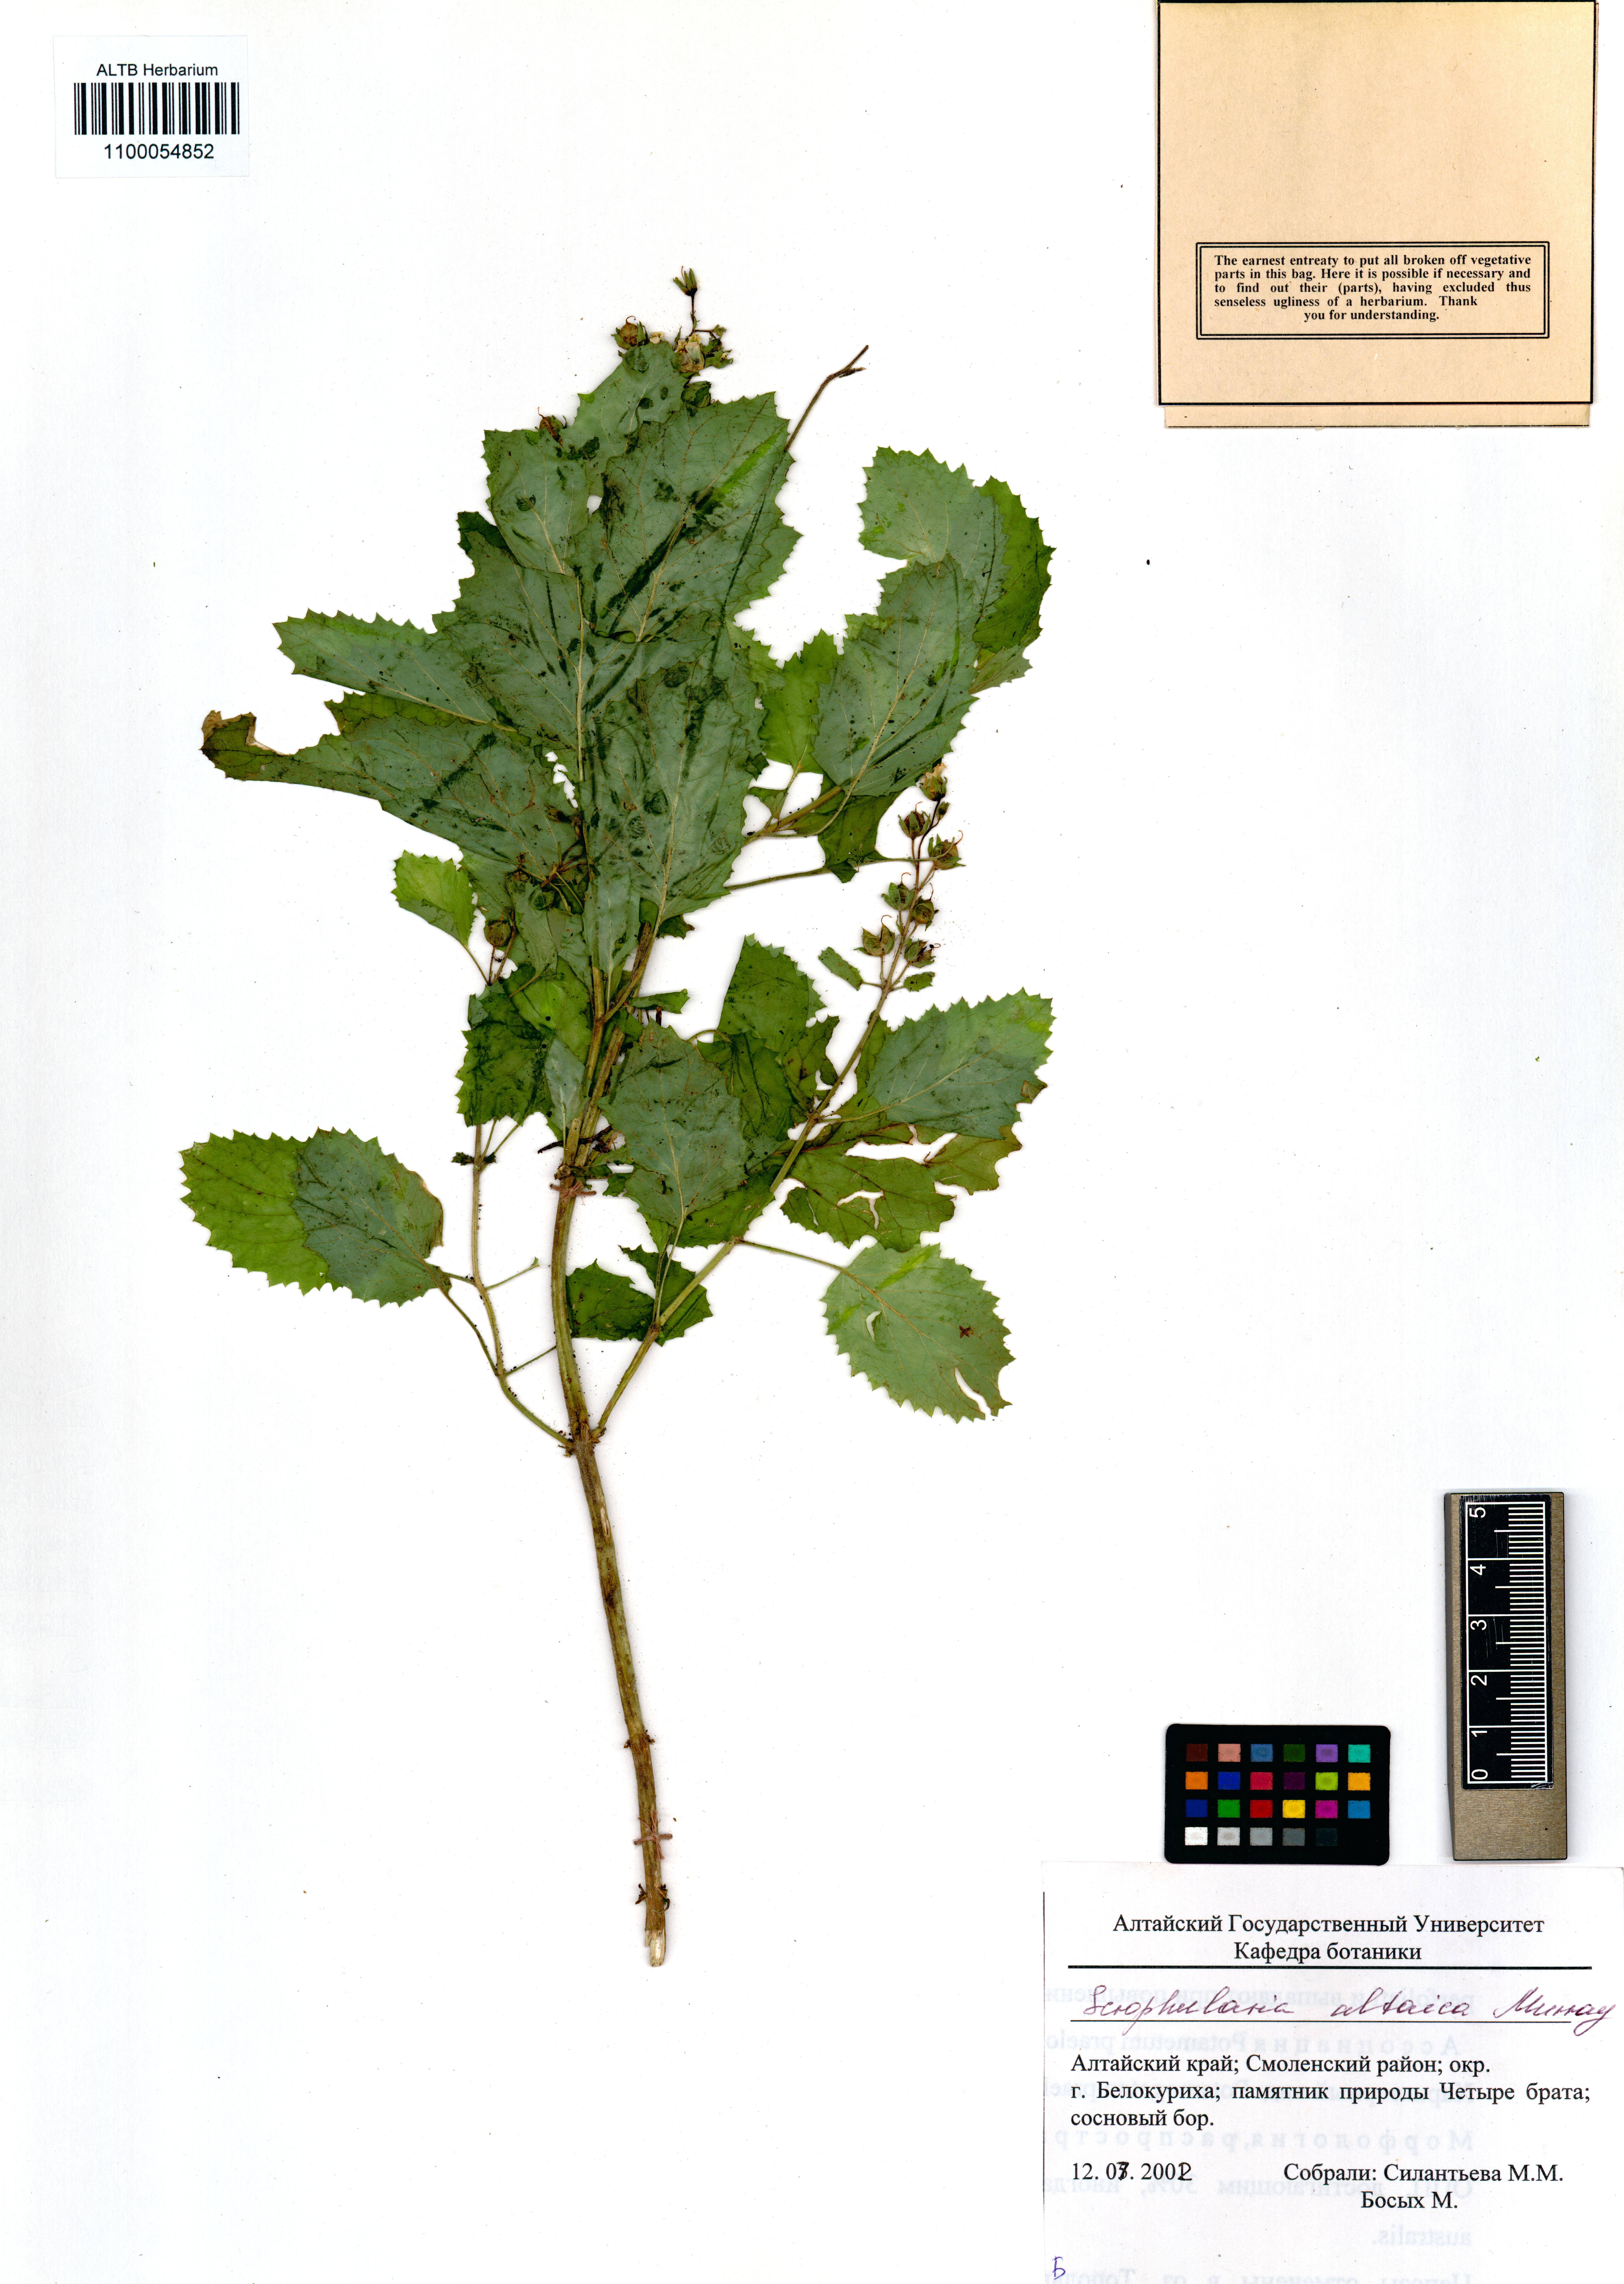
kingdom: Plantae
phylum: Tracheophyta
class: Magnoliopsida
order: Lamiales
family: Scrophulariaceae
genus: Scrophularia
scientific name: Scrophularia altaica
